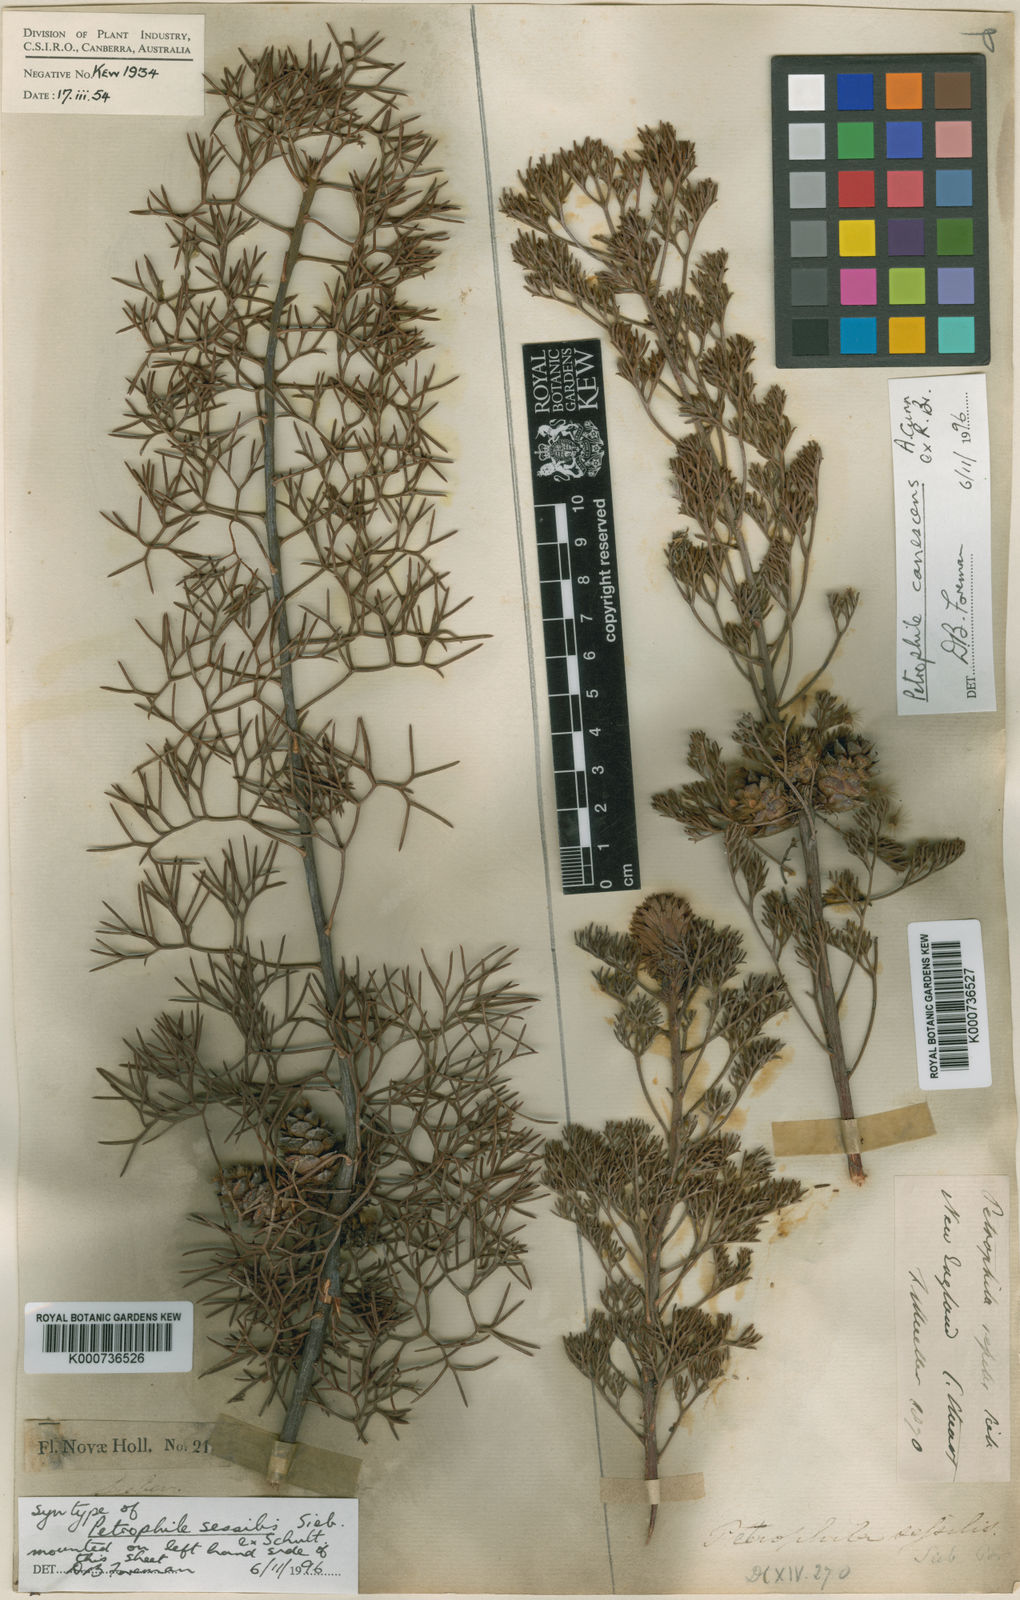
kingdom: Plantae
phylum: Tracheophyta
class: Magnoliopsida
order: Proteales
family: Proteaceae
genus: Petrophile
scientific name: Petrophile
